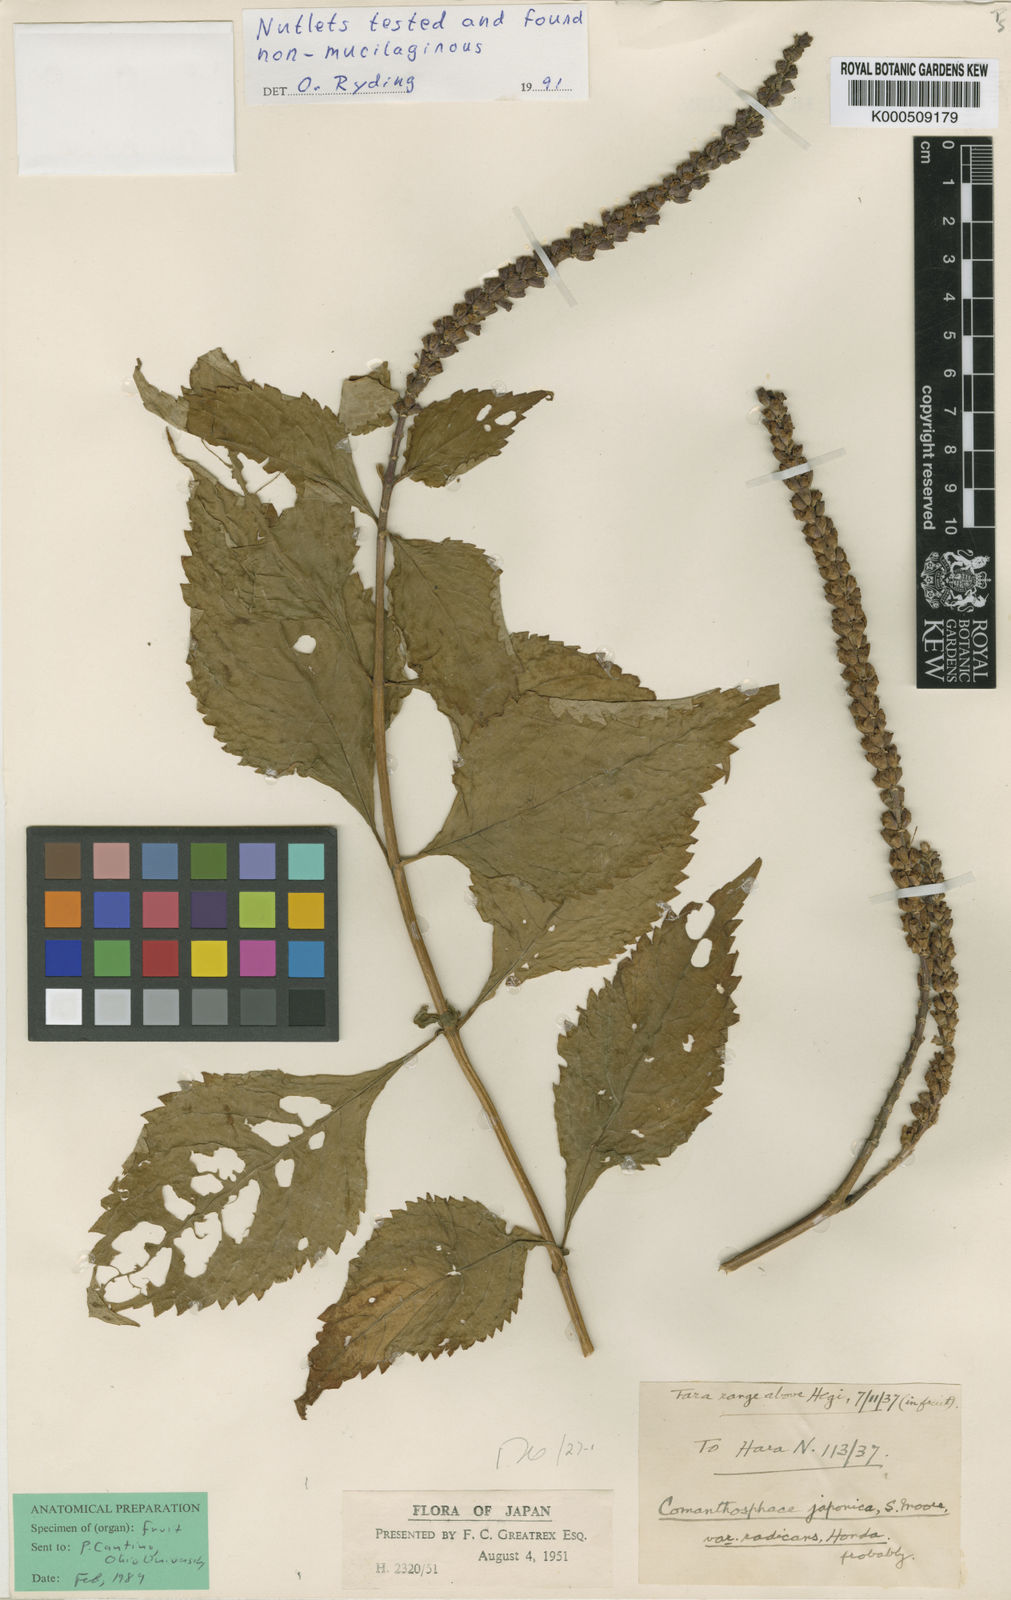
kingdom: Plantae
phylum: Tracheophyta
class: Magnoliopsida
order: Lamiales
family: Lamiaceae
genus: Comanthosphace
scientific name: Comanthosphace japonica
